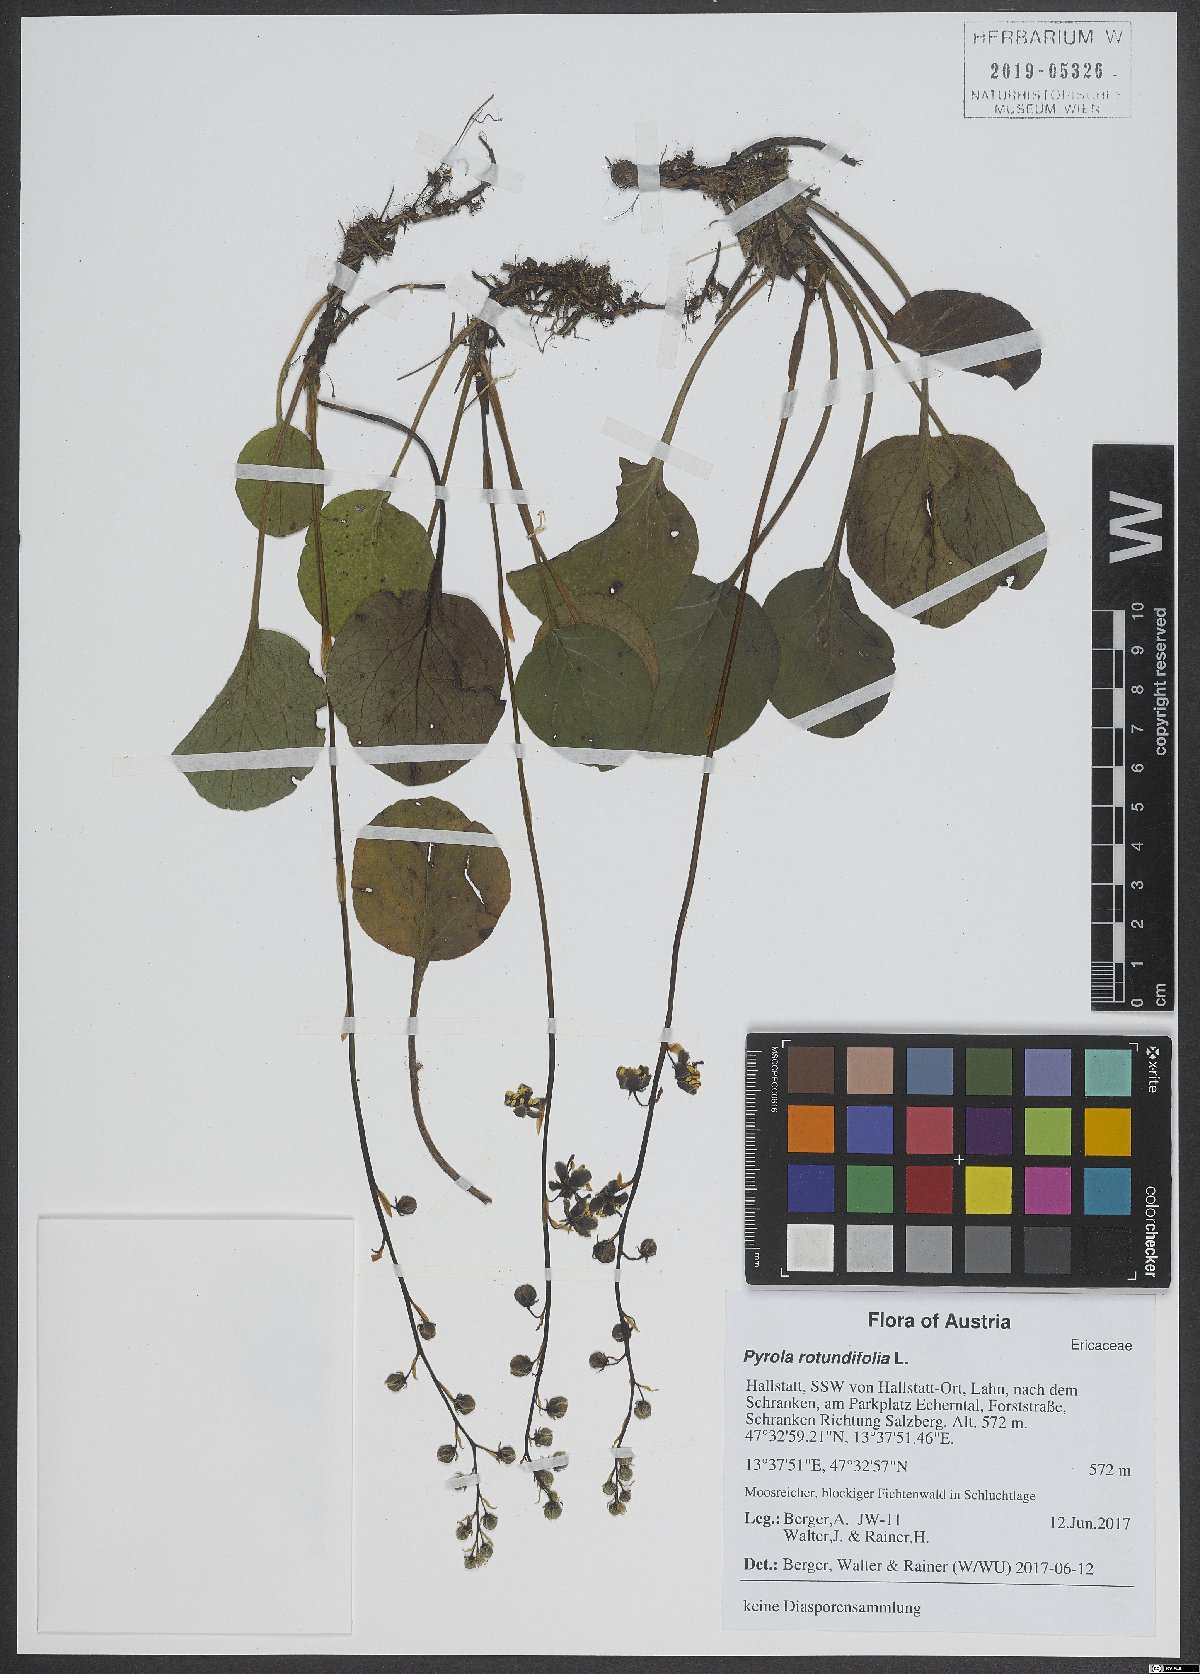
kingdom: Plantae
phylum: Tracheophyta
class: Magnoliopsida
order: Ericales
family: Ericaceae
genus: Pyrola
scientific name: Pyrola rotundifolia
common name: Round-leaved wintergreen
